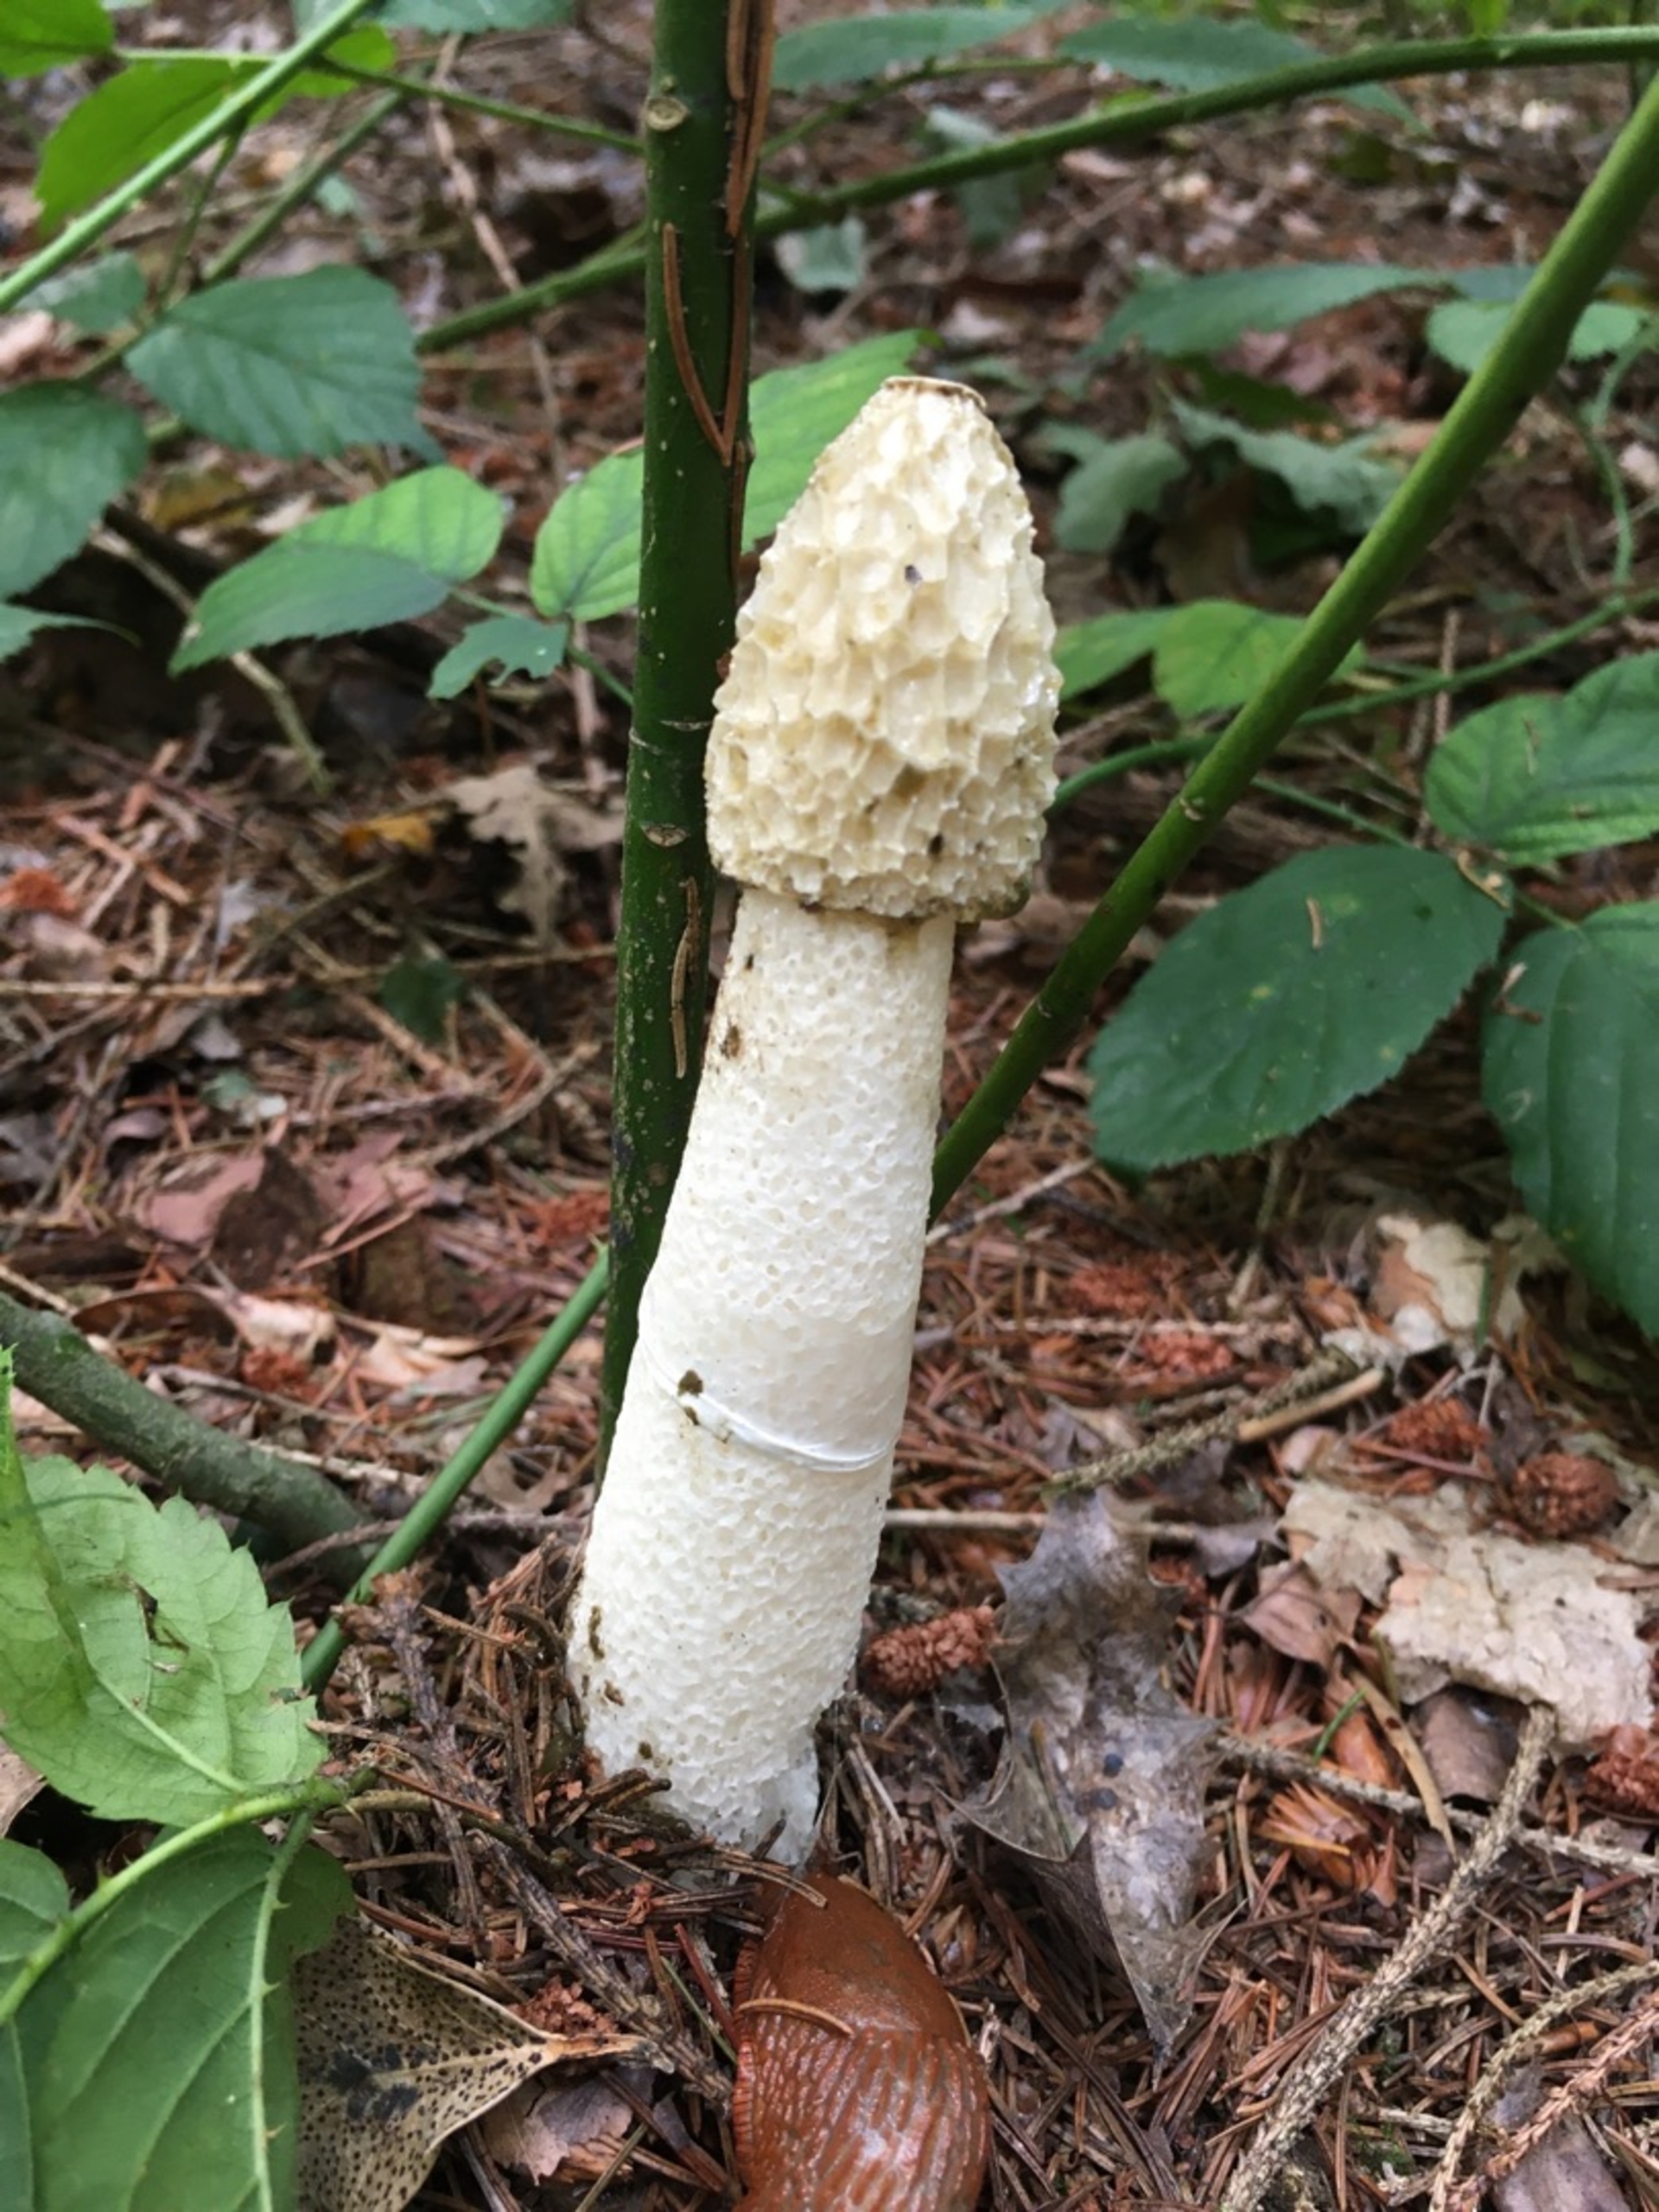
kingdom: Fungi
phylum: Basidiomycota
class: Agaricomycetes
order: Phallales
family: Phallaceae
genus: Phallus
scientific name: Phallus impudicus
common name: Almindelig stinksvamp
